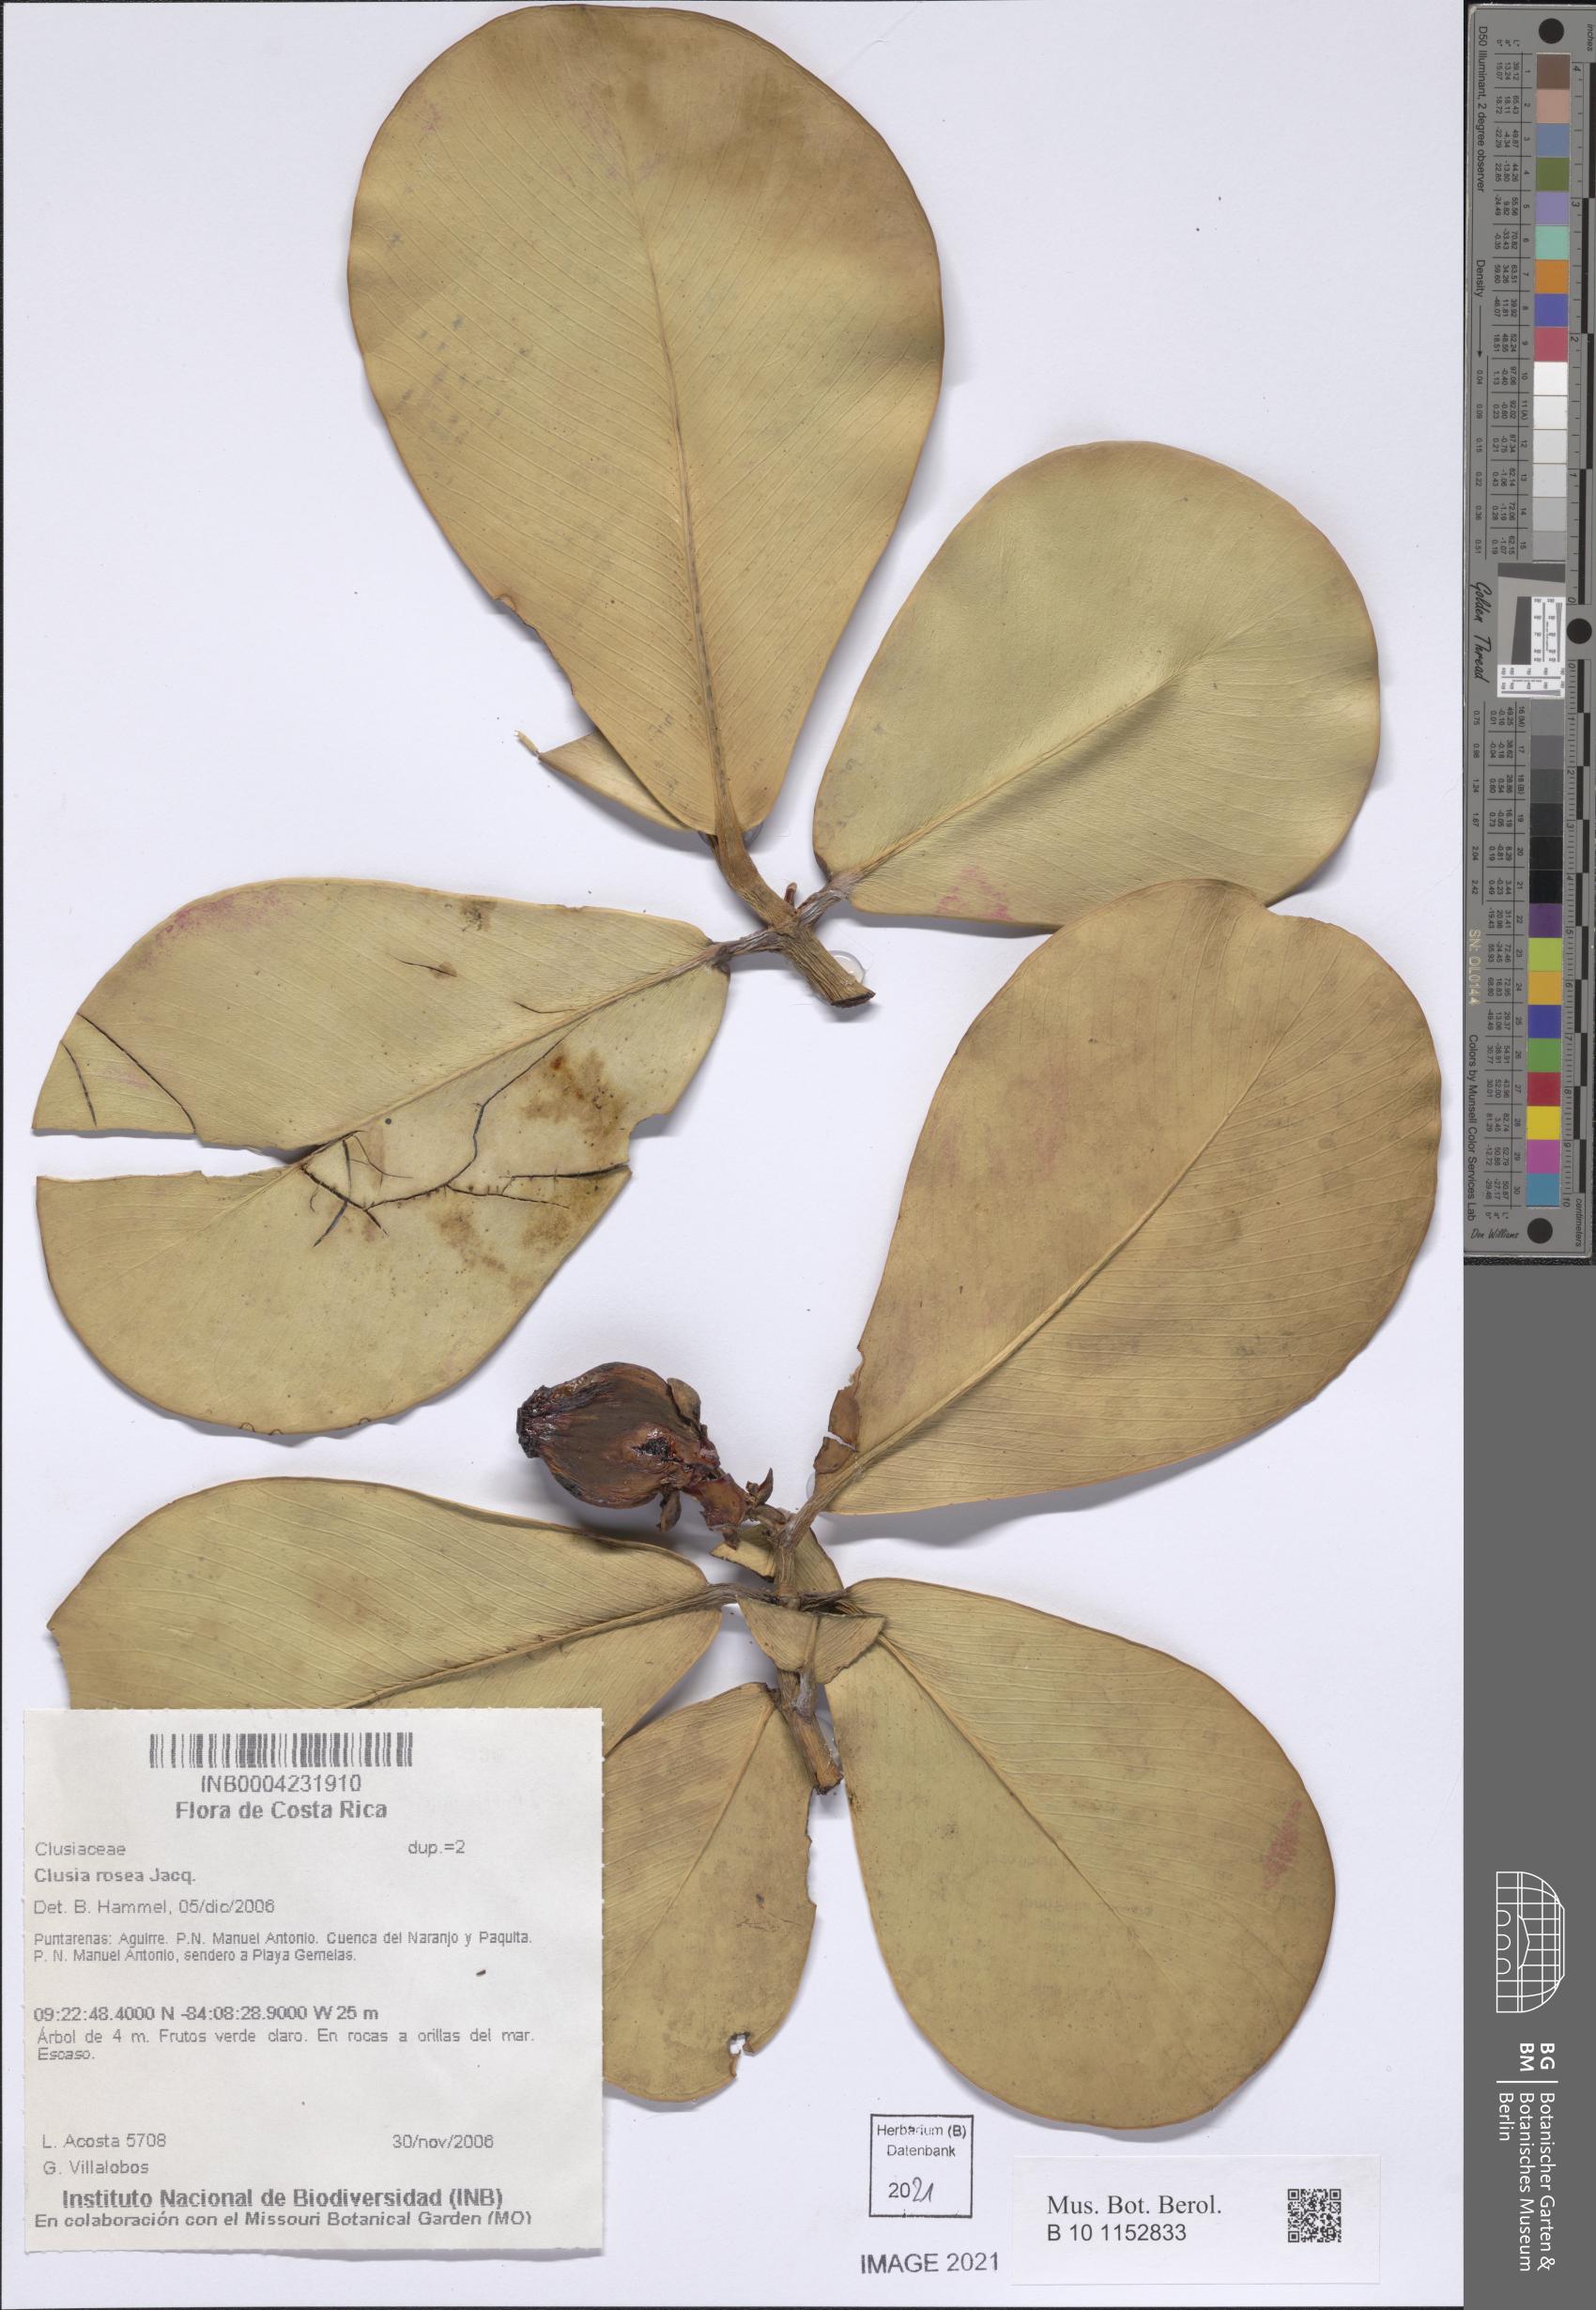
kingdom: Plantae
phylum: Tracheophyta
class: Magnoliopsida
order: Malpighiales
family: Clusiaceae
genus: Clusia
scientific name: Clusia rosea
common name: Scotch attorney
